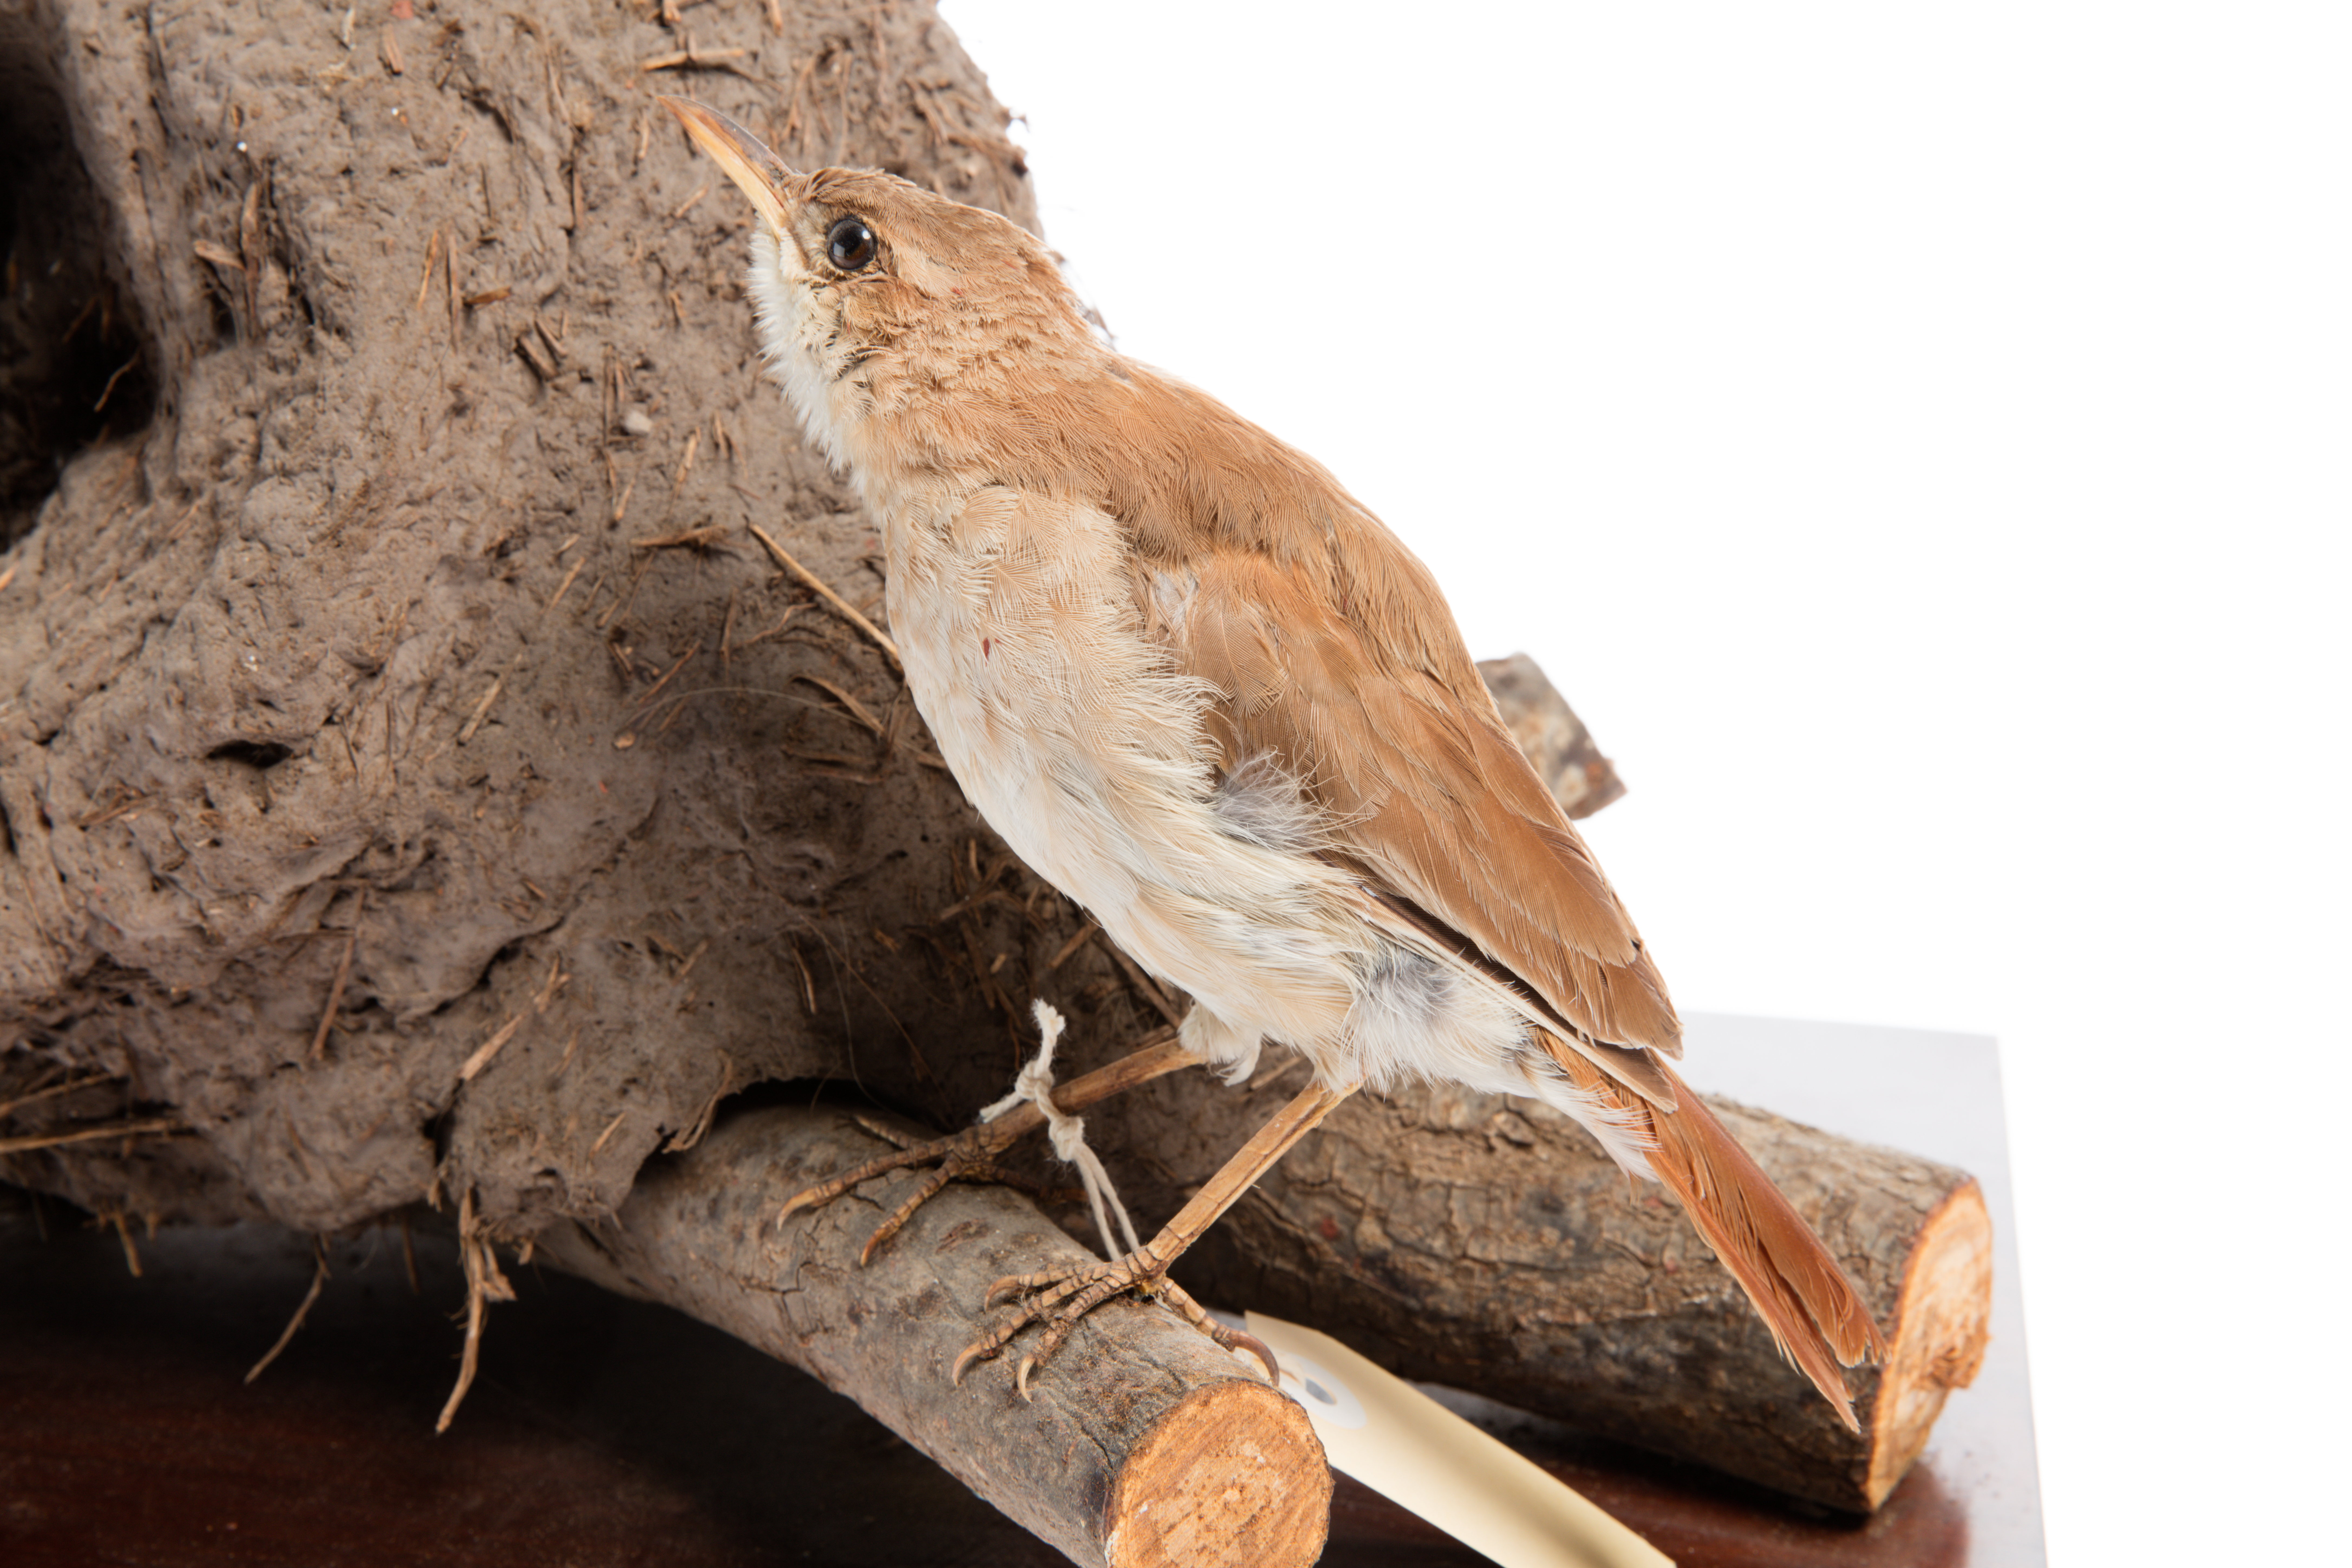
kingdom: Animalia
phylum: Chordata
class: Aves
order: Passeriformes
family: Furnariidae
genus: Furnarius
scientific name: Furnarius rufus
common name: Rufous hornero
